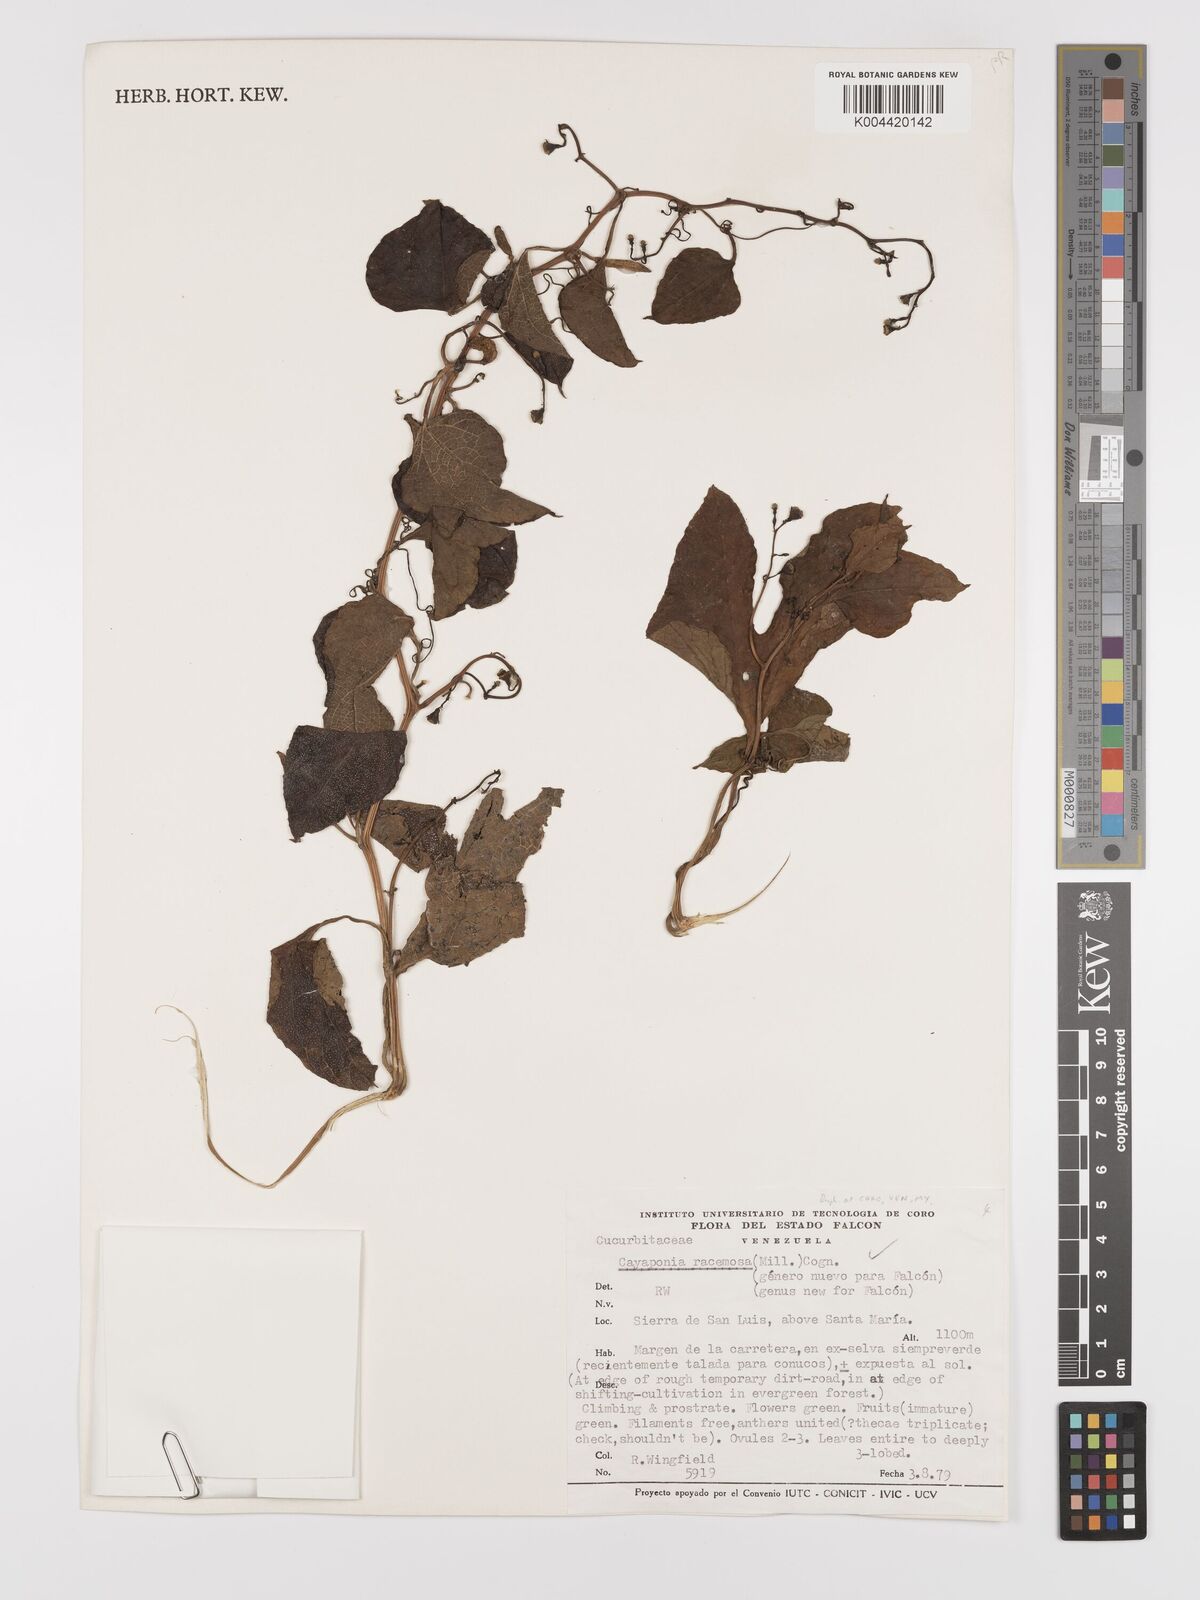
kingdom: Plantae
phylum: Tracheophyta
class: Magnoliopsida
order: Cucurbitales
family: Cucurbitaceae
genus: Cayaponia
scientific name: Cayaponia racemosa
